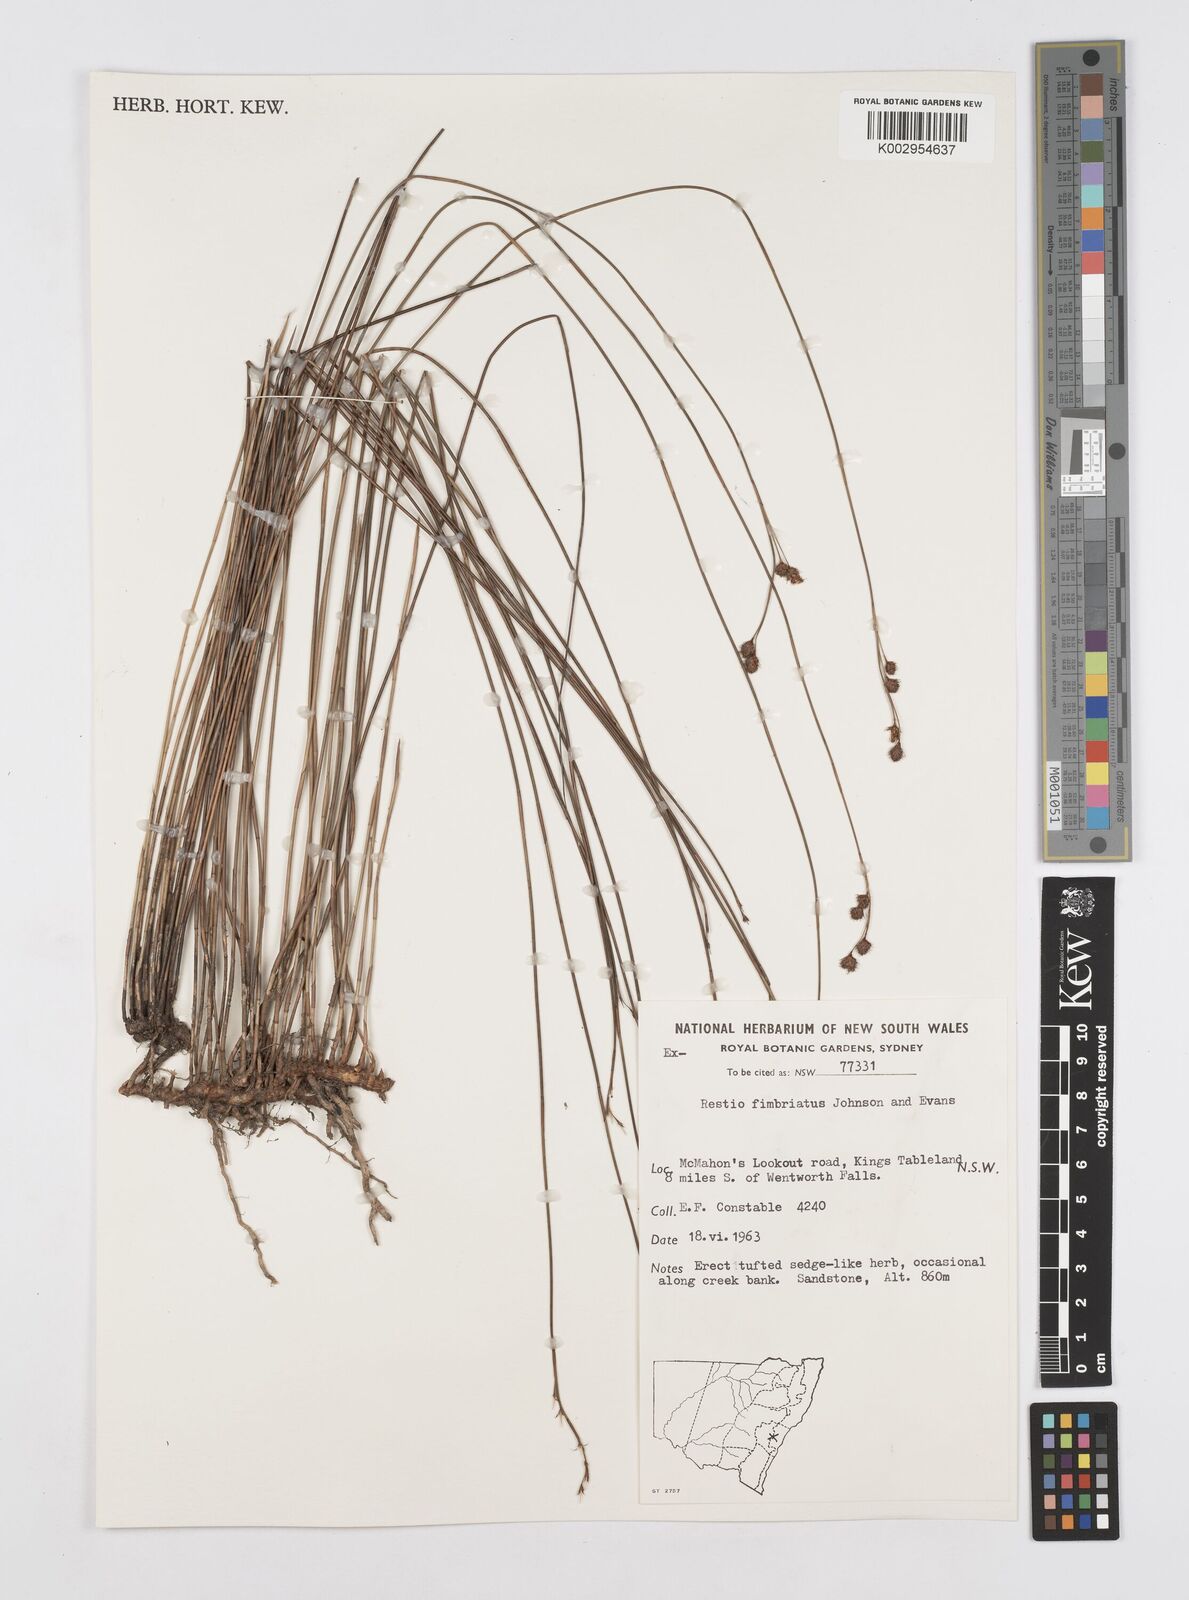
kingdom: Plantae
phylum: Tracheophyta
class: Liliopsida
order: Poales
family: Restionaceae
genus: Baloskion
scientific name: Baloskion fimbriatum
